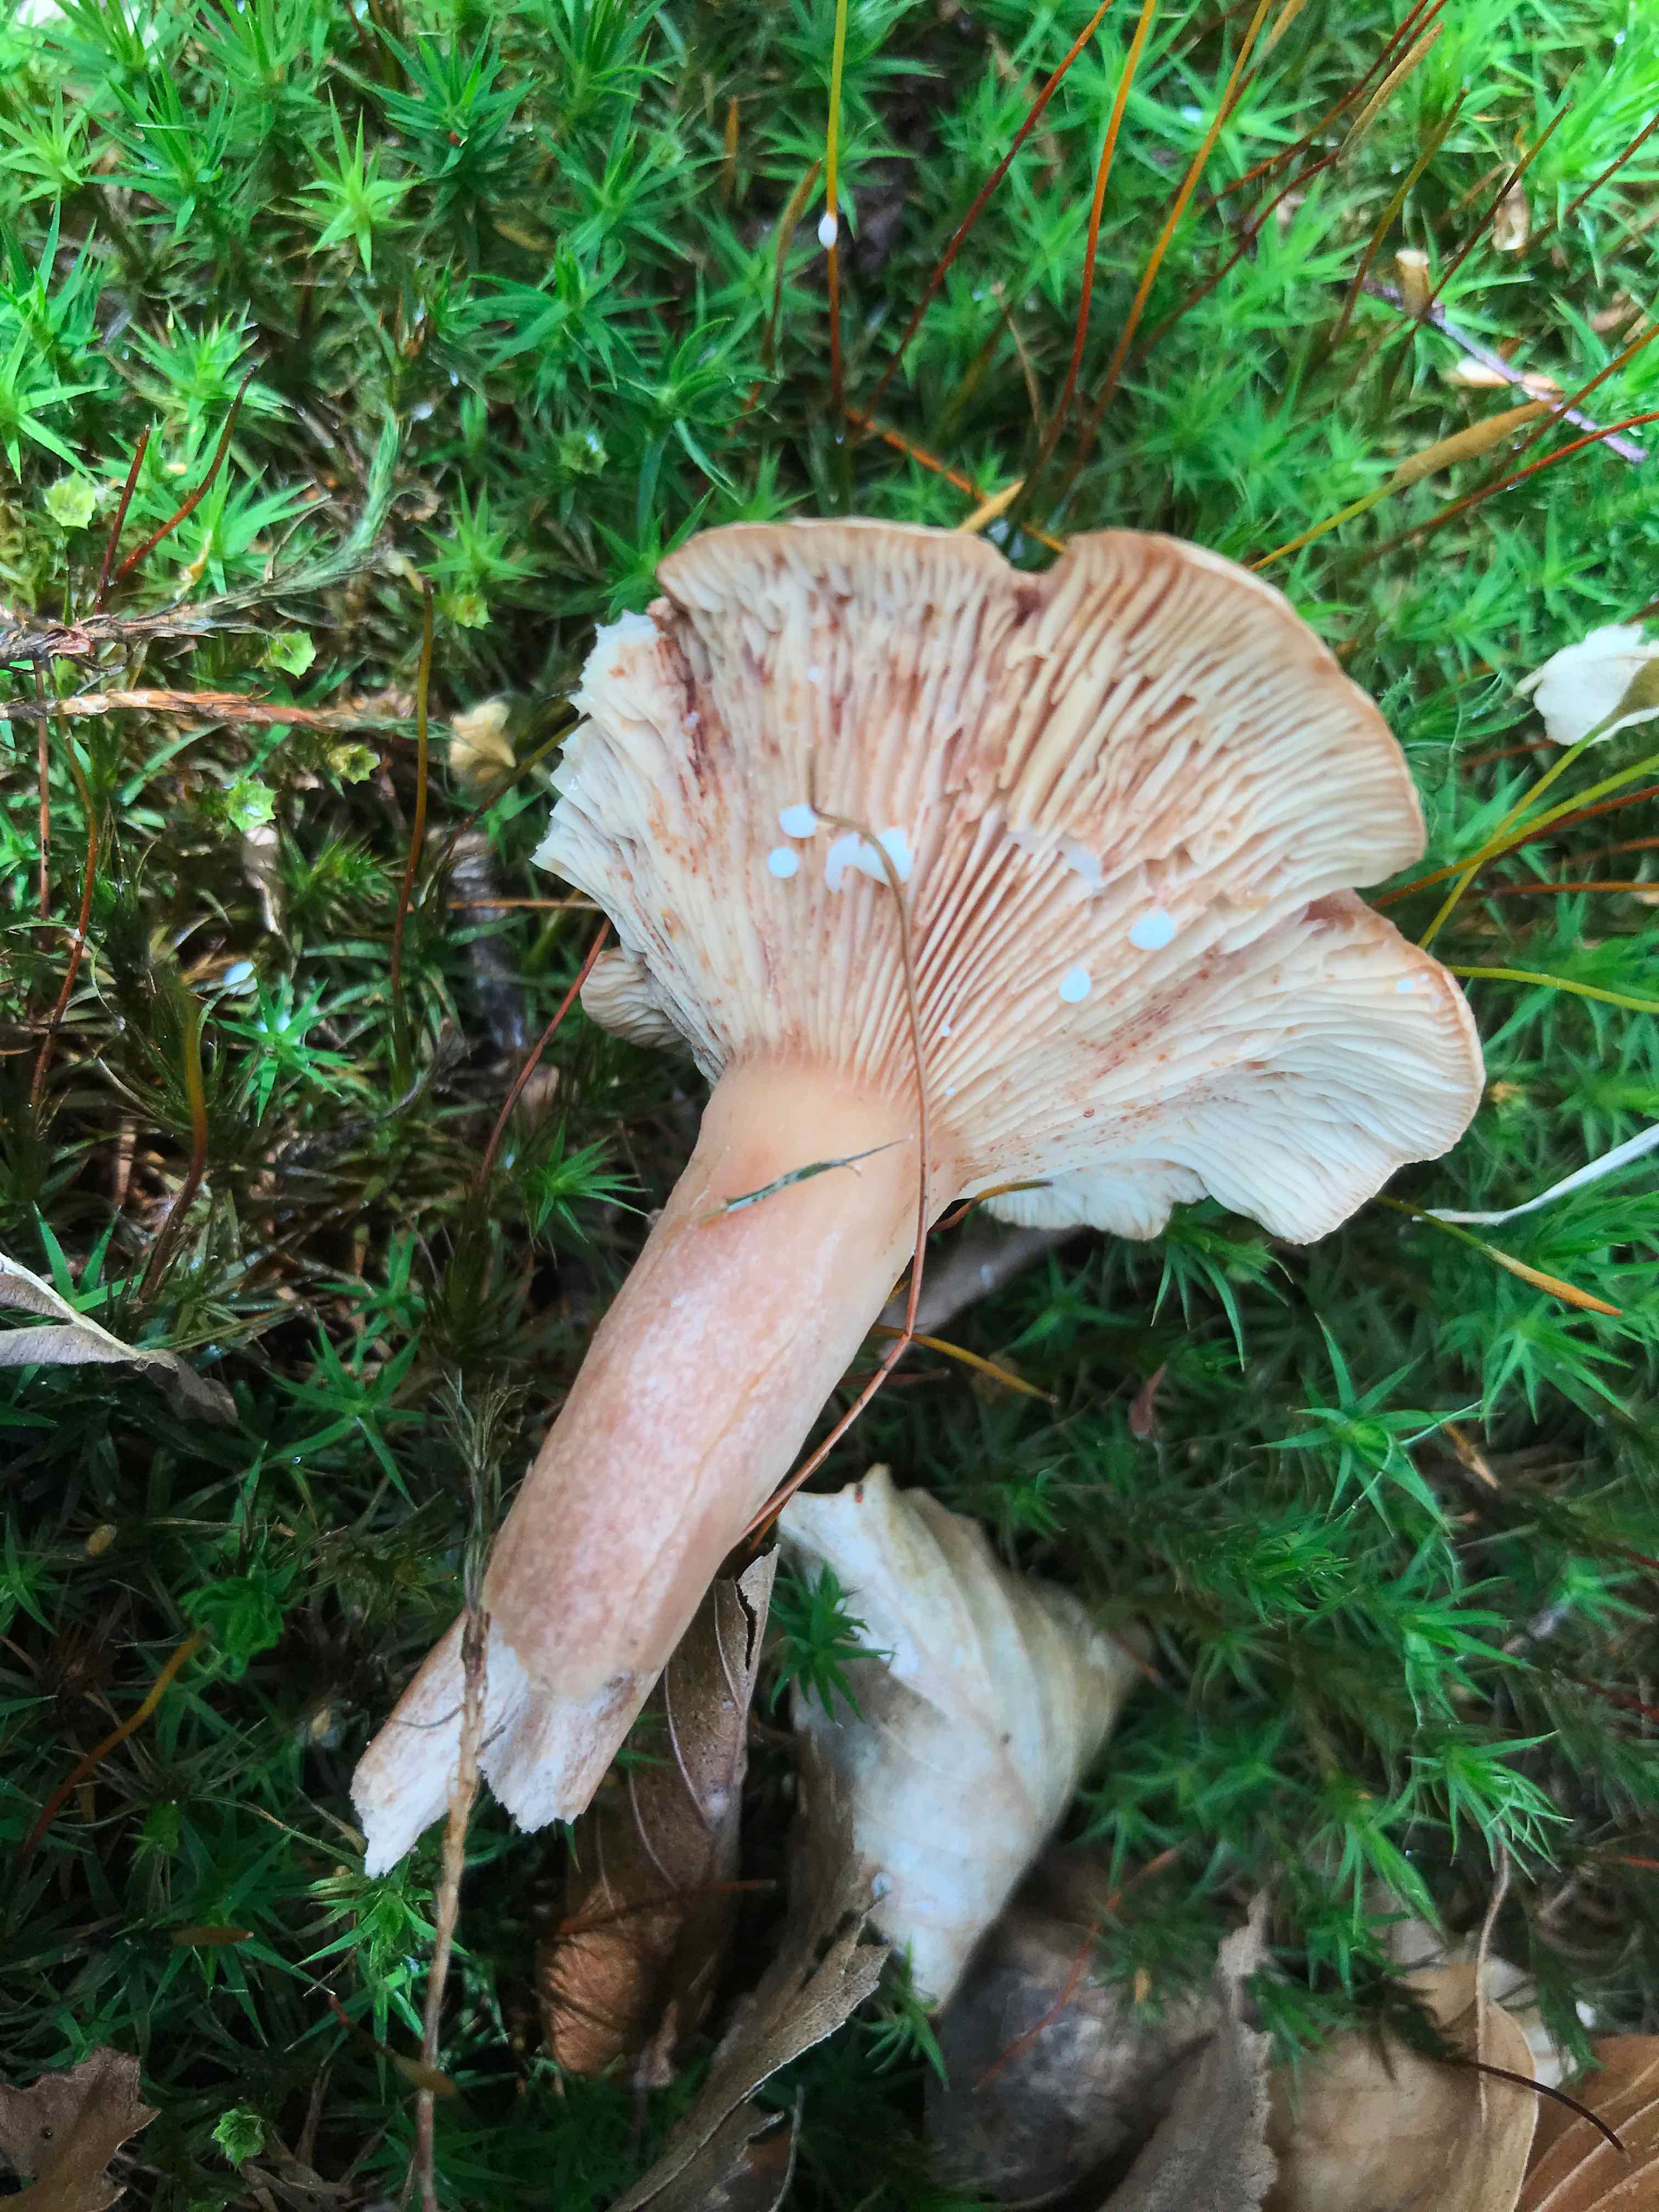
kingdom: Fungi
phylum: Basidiomycota
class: Agaricomycetes
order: Russulales
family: Russulaceae
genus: Lactarius
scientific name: Lactarius quietus
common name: ege-mælkehat
